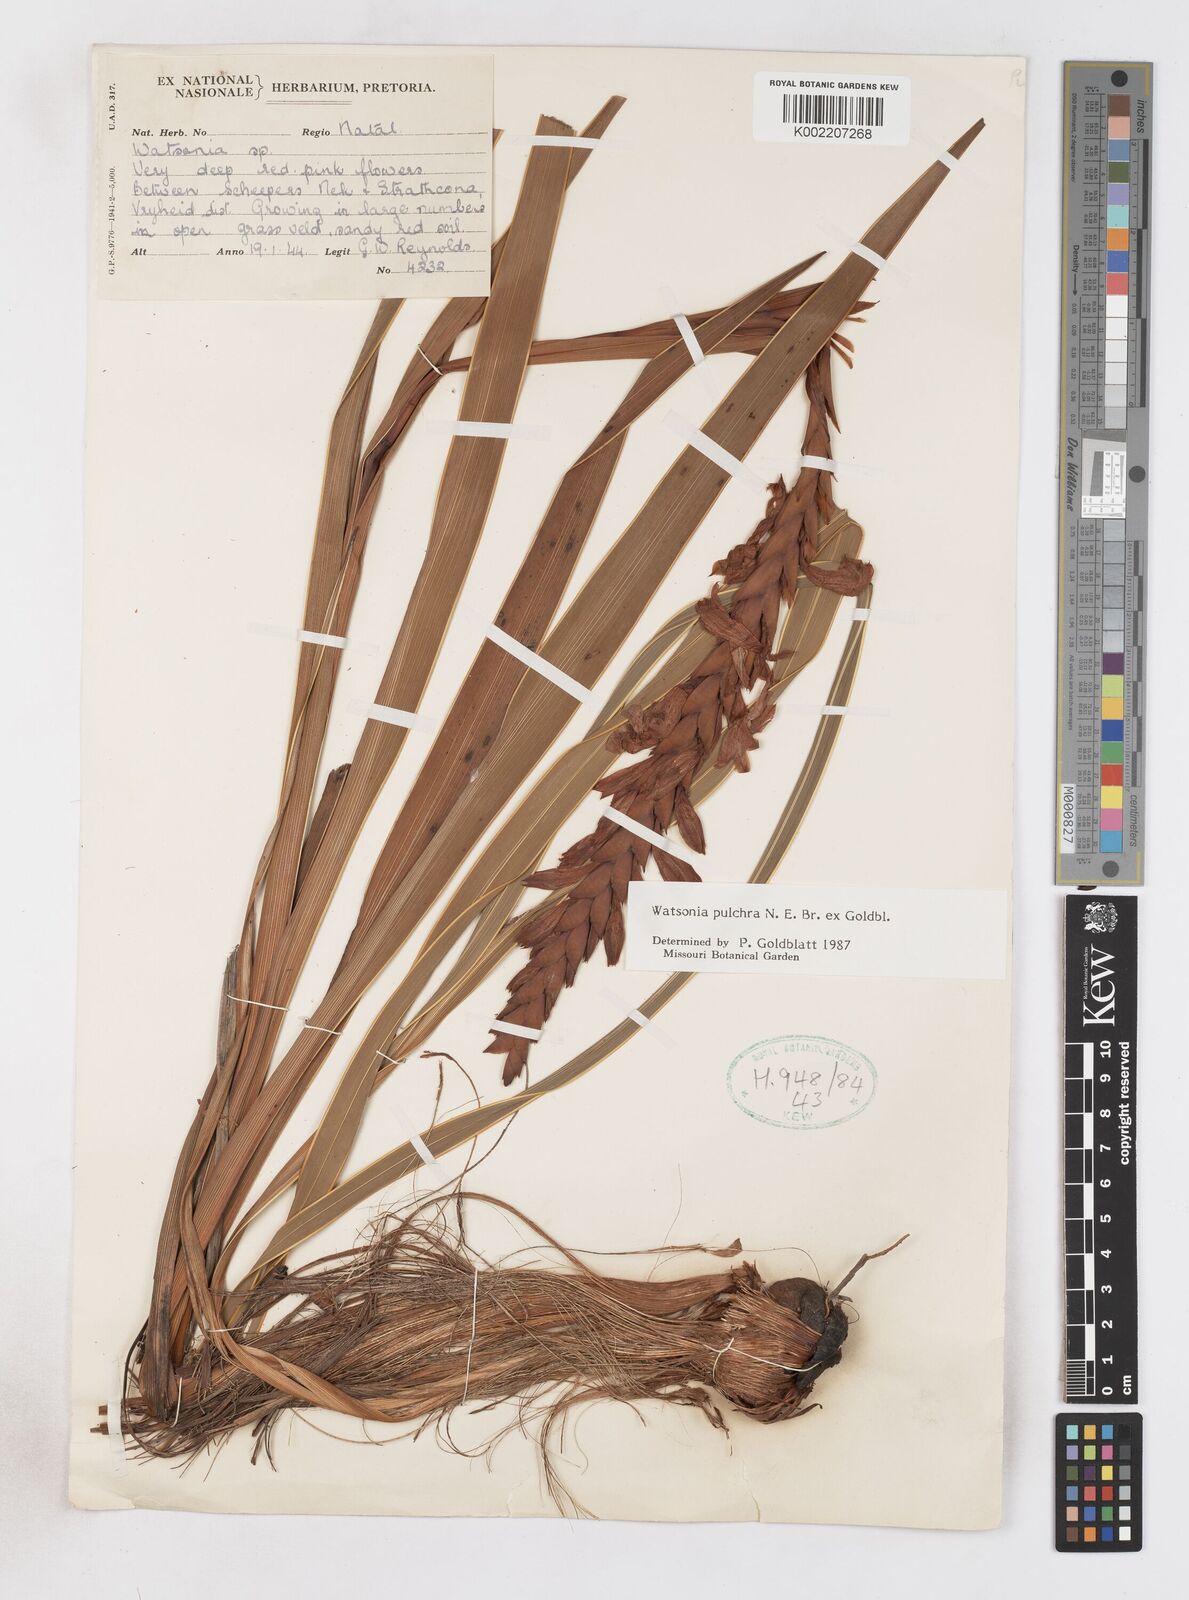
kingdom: Plantae
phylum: Tracheophyta
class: Liliopsida
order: Asparagales
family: Iridaceae
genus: Watsonia
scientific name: Watsonia pulchra
